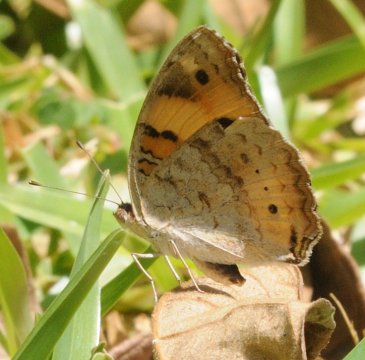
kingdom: Animalia
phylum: Arthropoda
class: Insecta
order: Lepidoptera
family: Nymphalidae
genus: Junonia
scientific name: Junonia hierta
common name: Yellow Pansy
